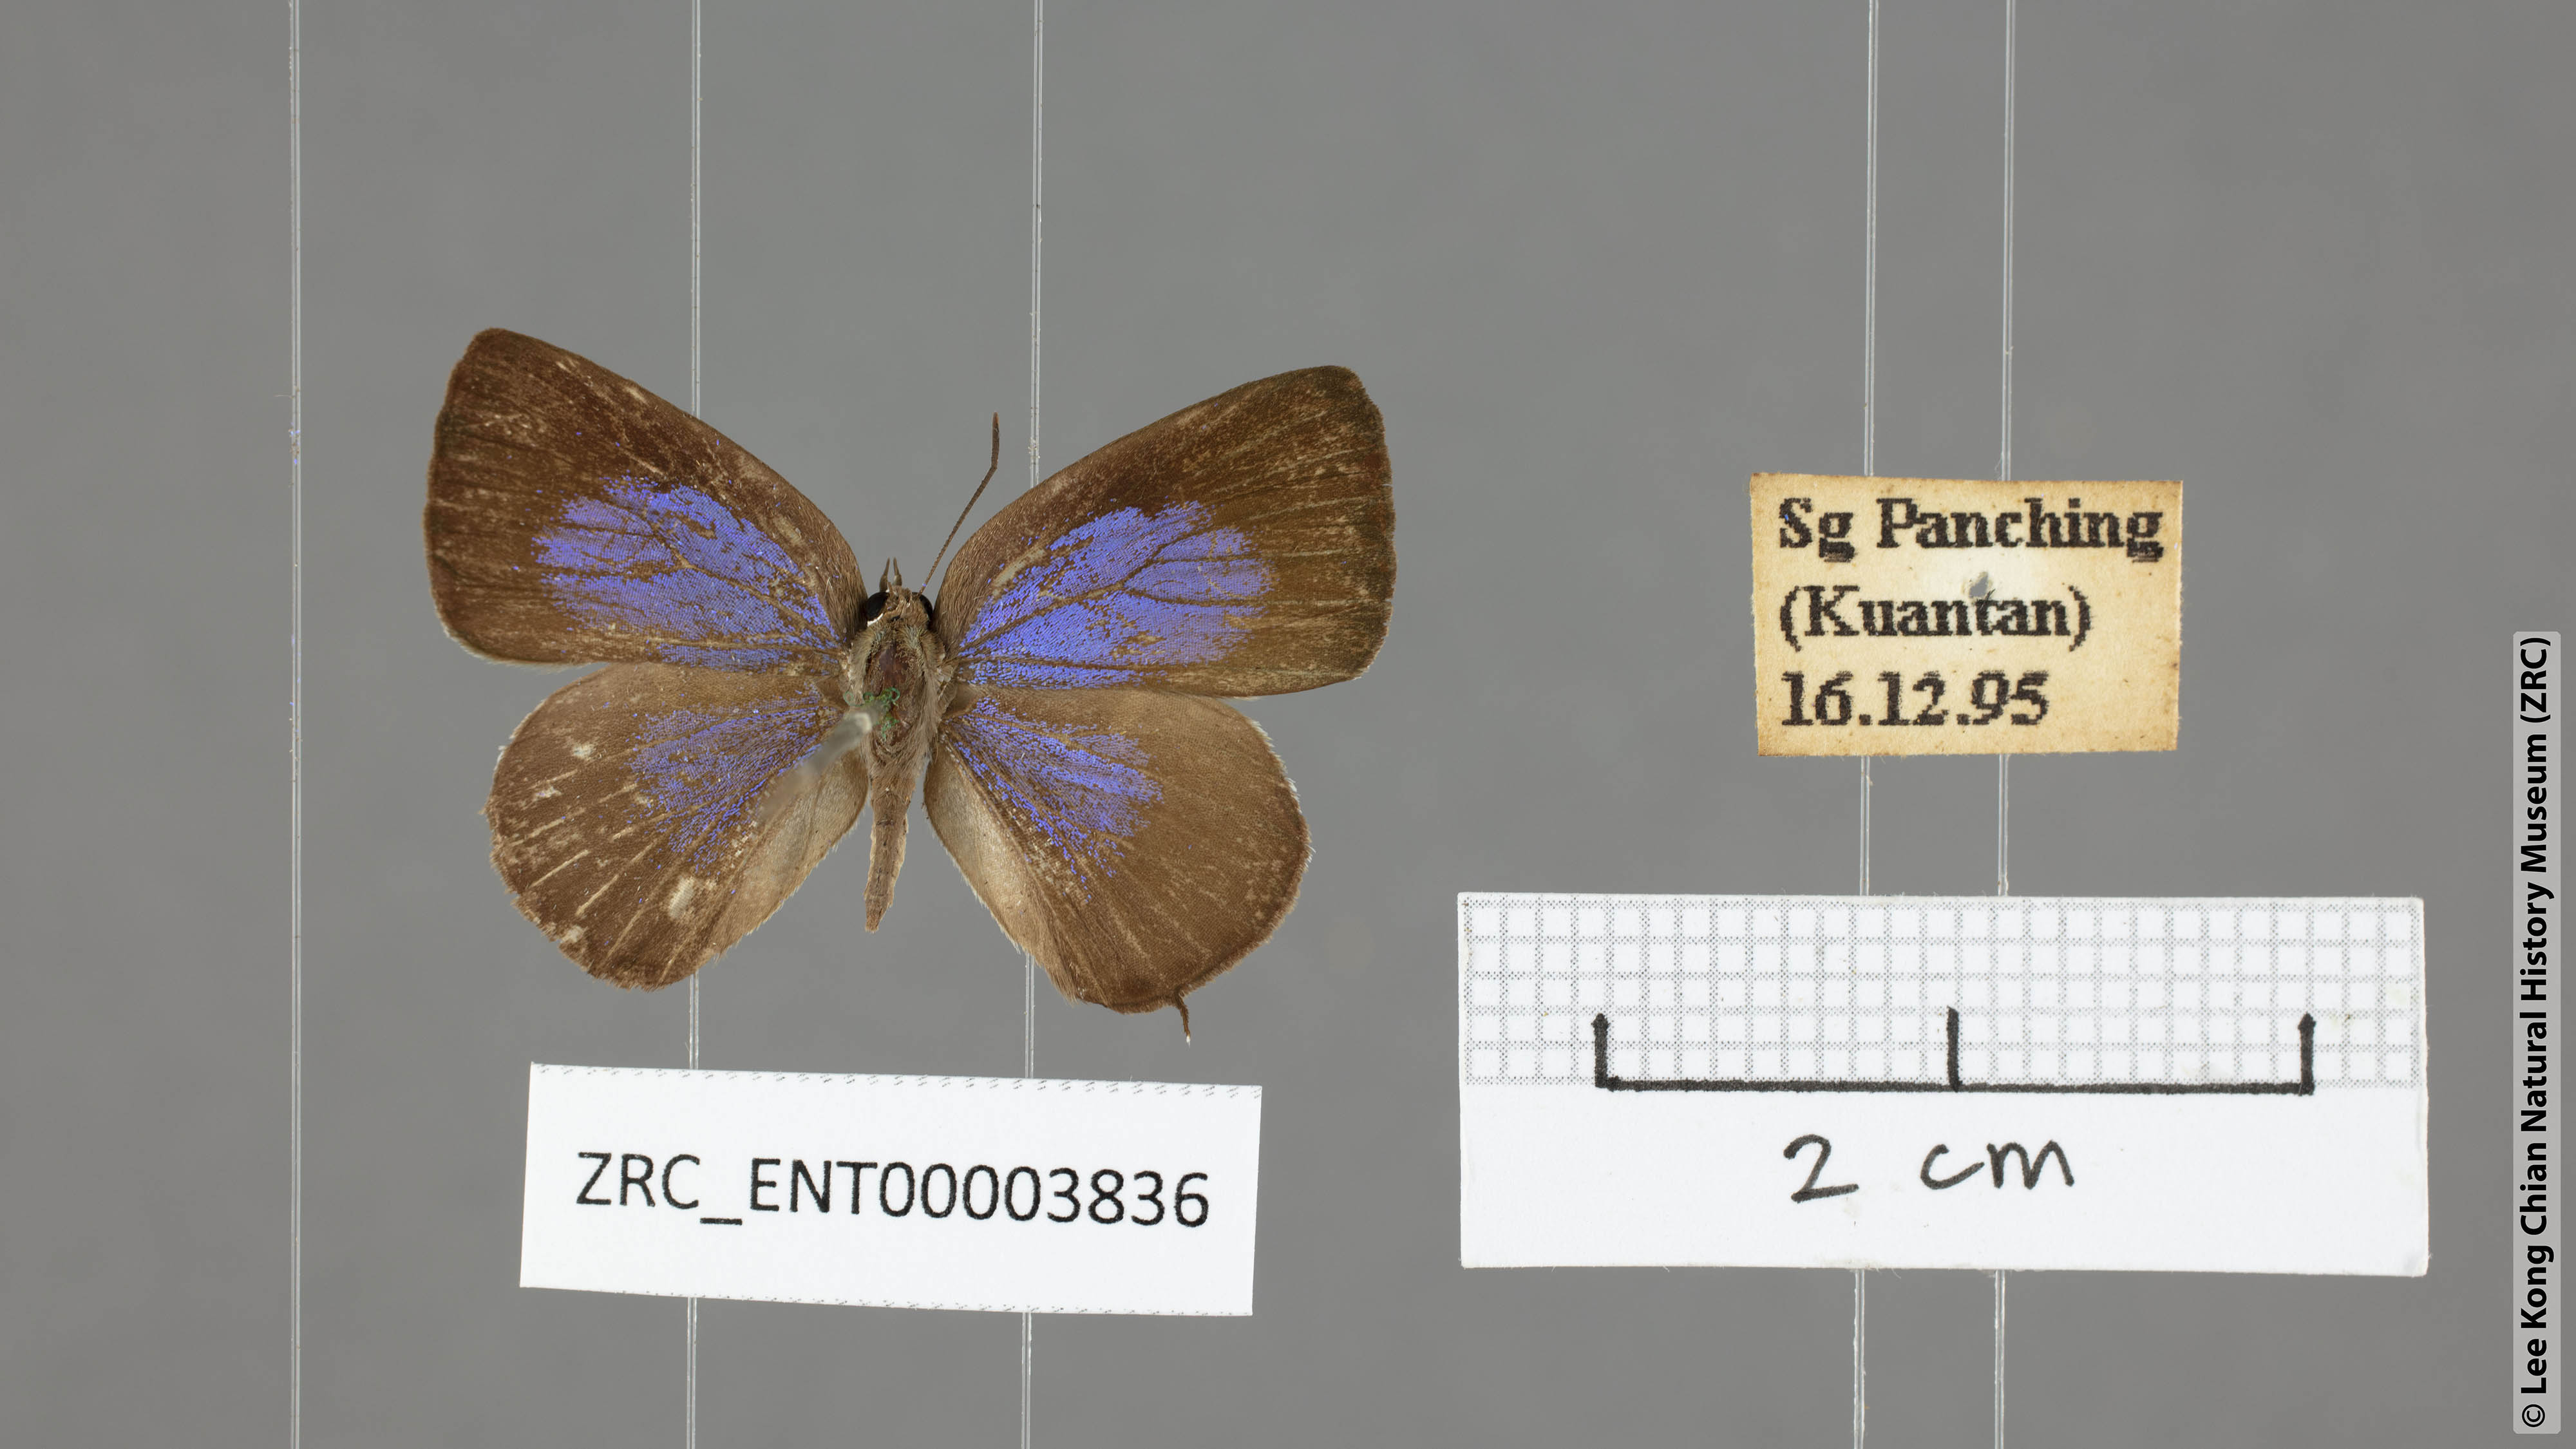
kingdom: Animalia
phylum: Arthropoda
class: Insecta
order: Lepidoptera
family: Lycaenidae
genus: Arhopala
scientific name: Arhopala ammonides
